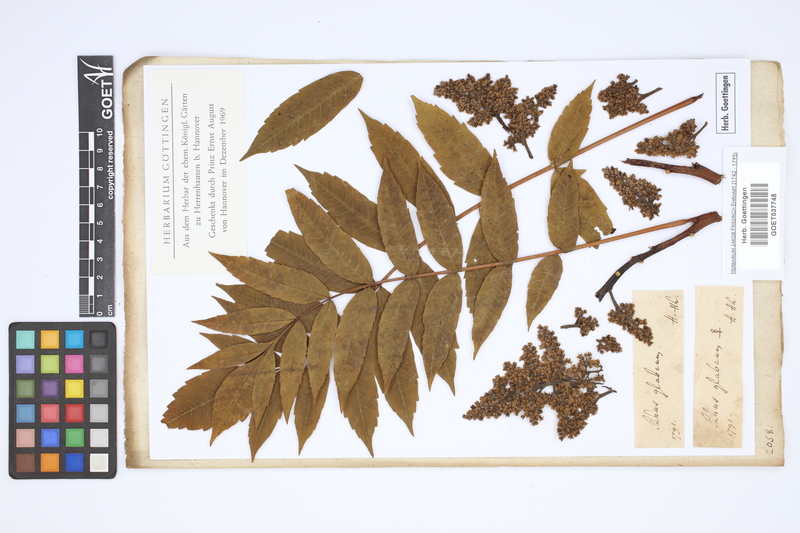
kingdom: Plantae
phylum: Tracheophyta
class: Magnoliopsida
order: Sapindales
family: Anacardiaceae
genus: Rhus
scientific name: Rhus glabra
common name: Scarlet sumac
